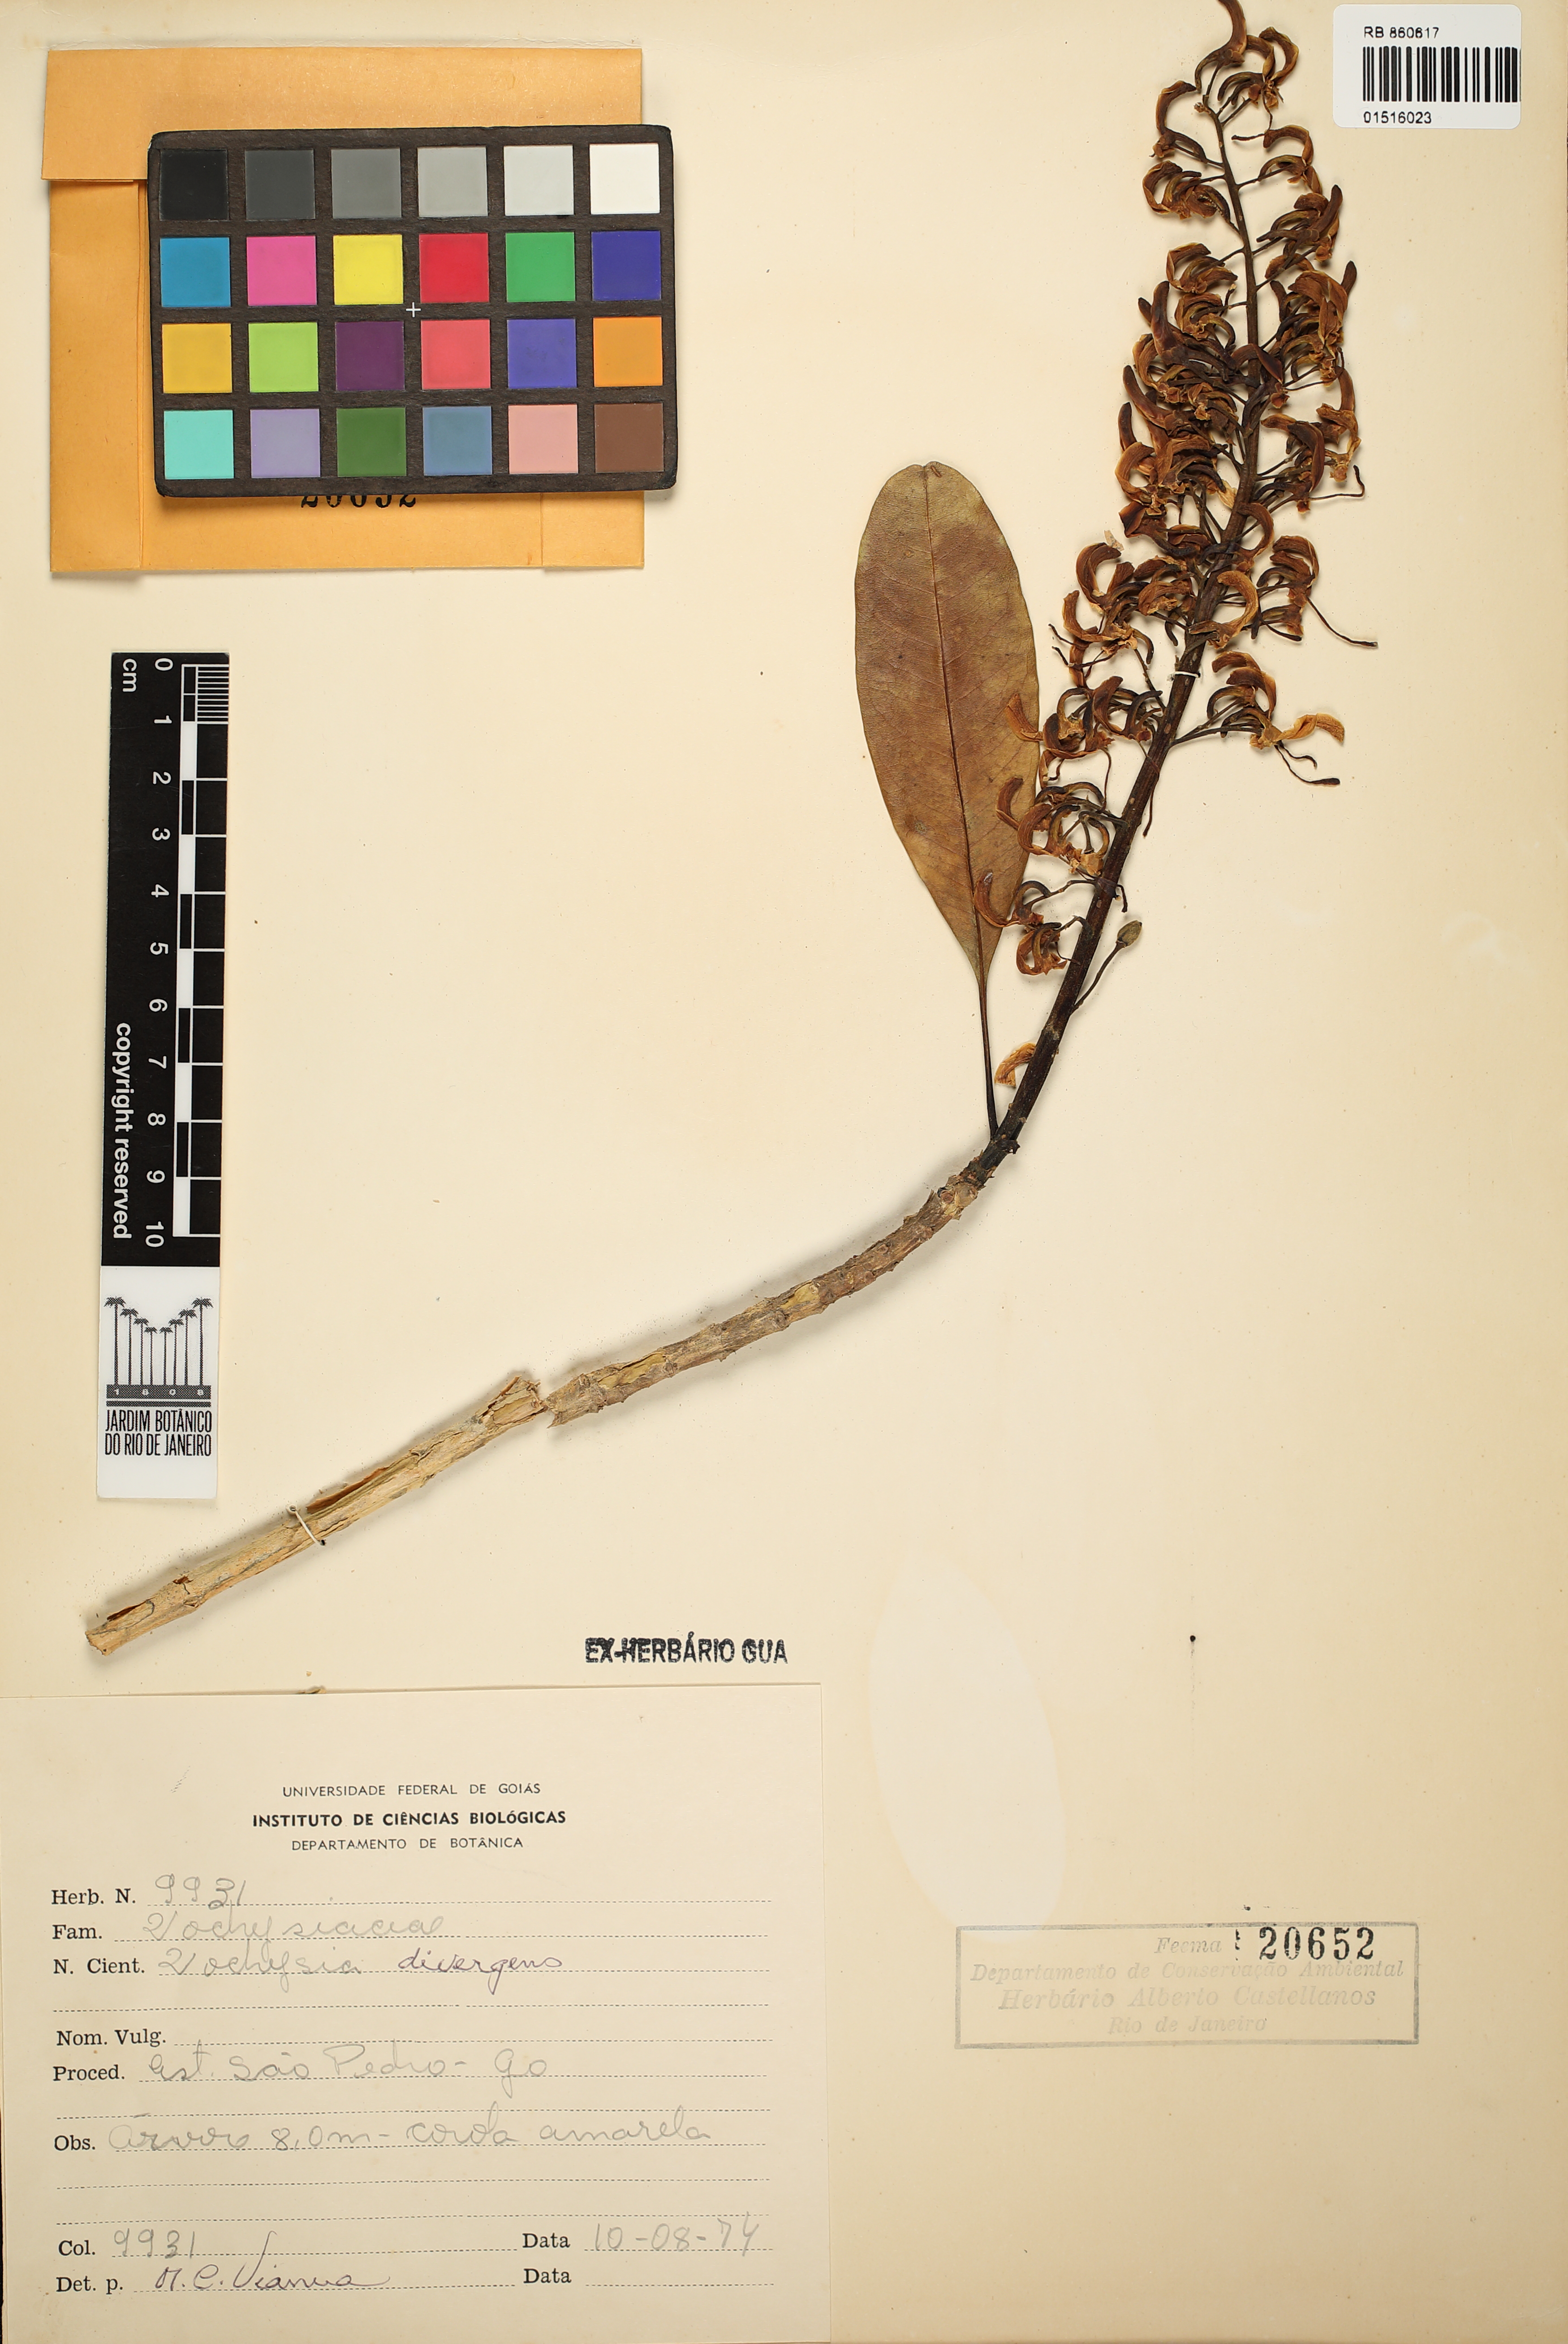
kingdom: Plantae
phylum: Tracheophyta
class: Magnoliopsida
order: Myrtales
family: Vochysiaceae
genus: Vochysia
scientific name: Vochysia divergens
